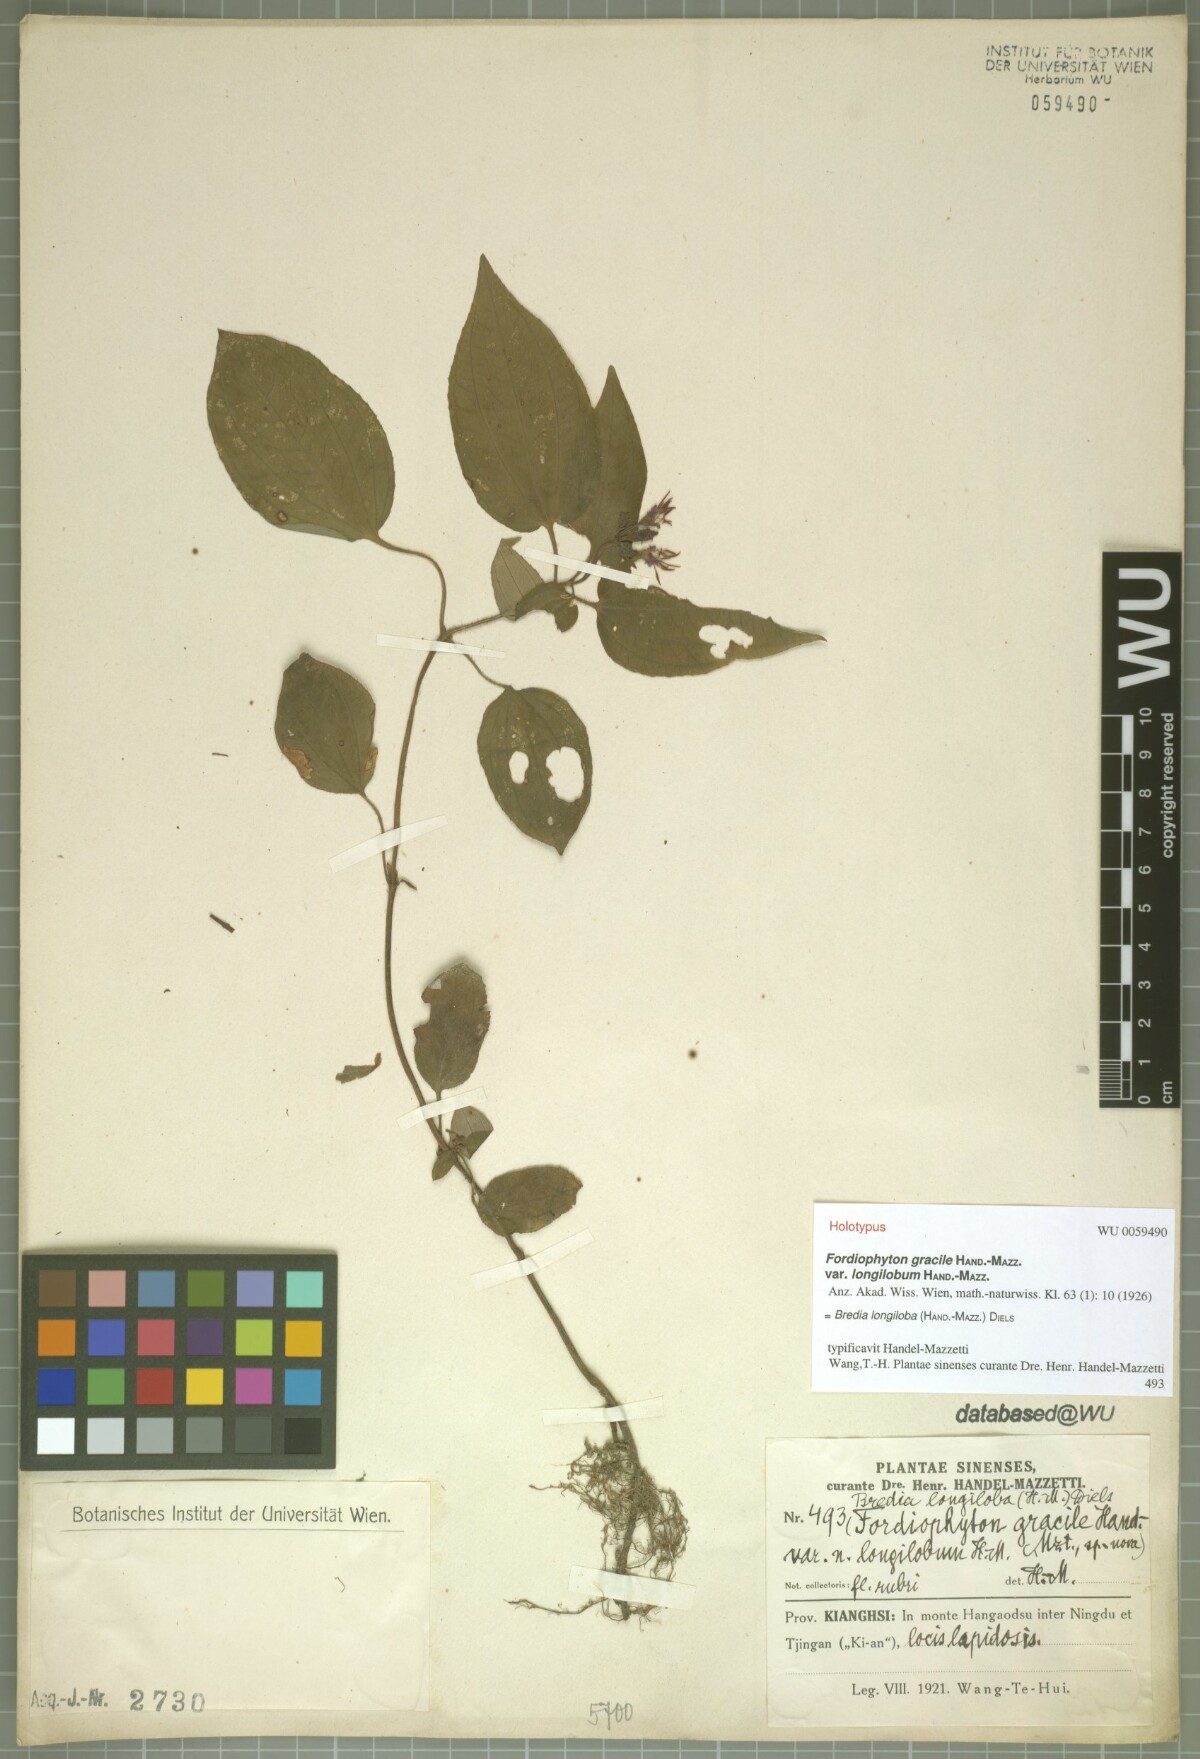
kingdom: Plantae
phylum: Tracheophyta
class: Magnoliopsida
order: Myrtales
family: Melastomataceae
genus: Bredia
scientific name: Bredia longiloba
